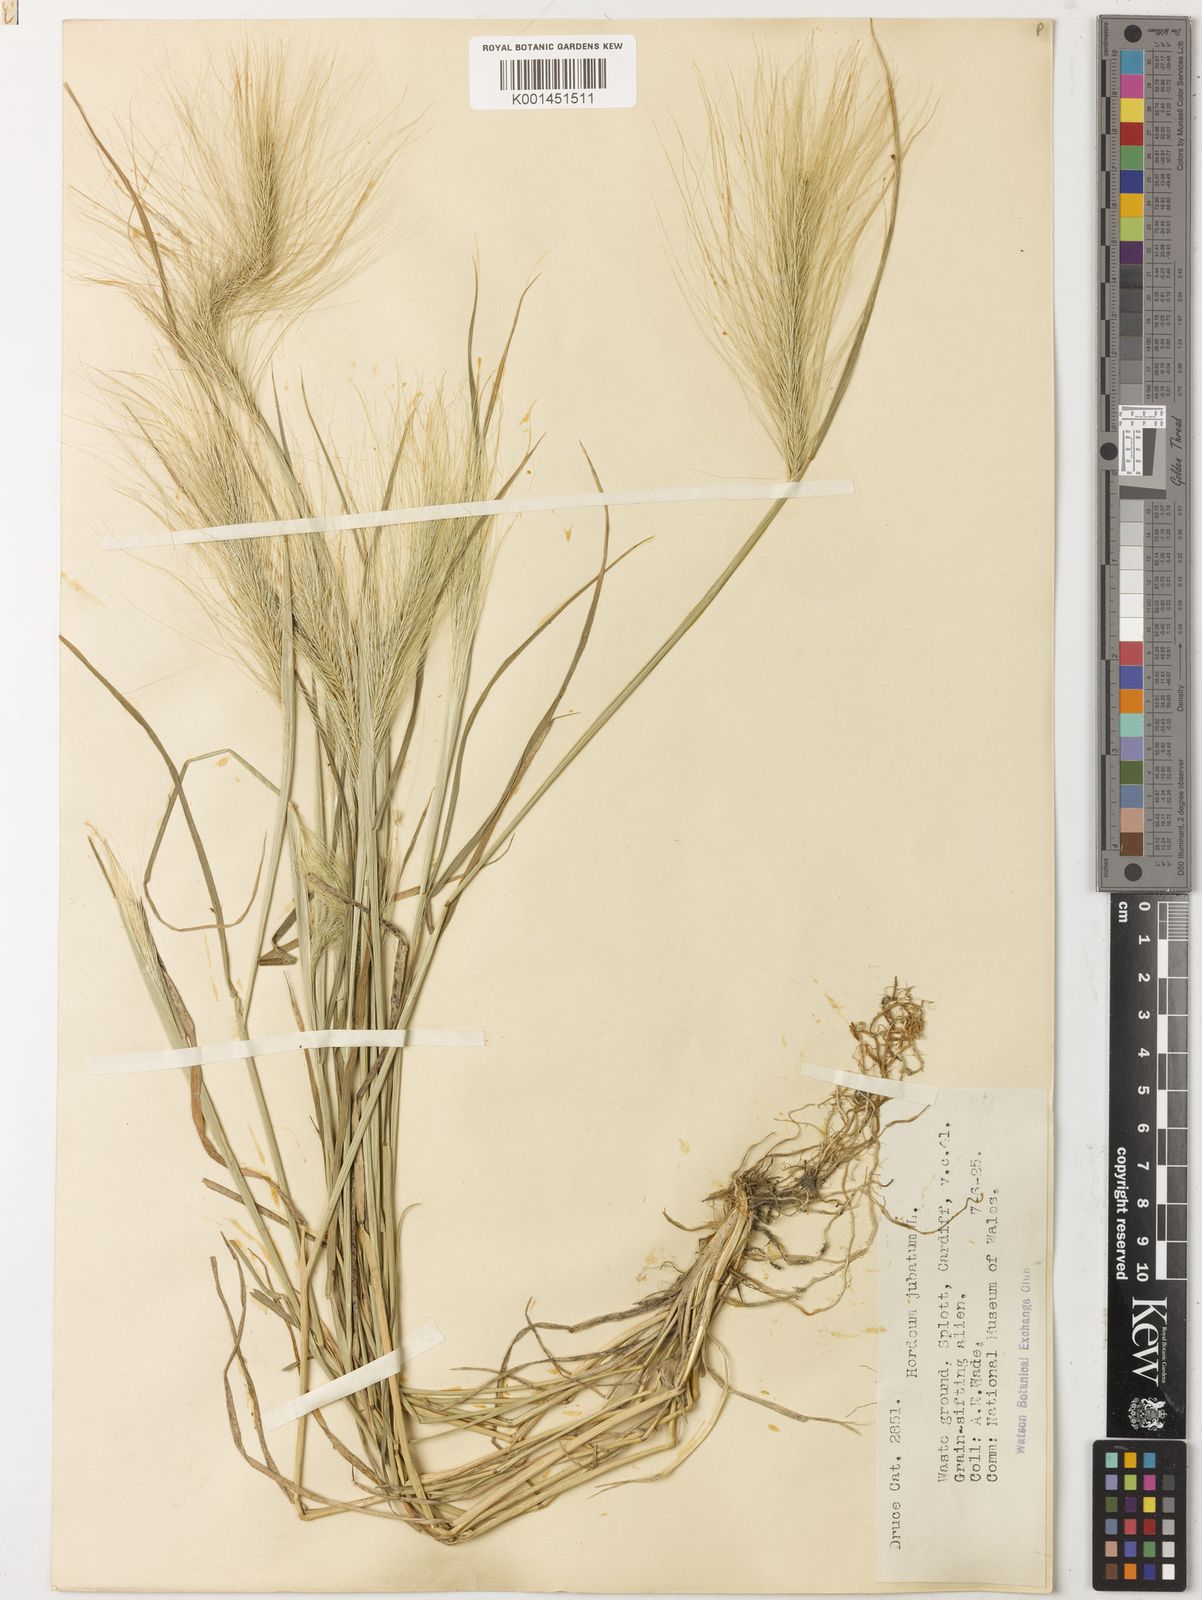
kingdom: Plantae
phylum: Tracheophyta
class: Liliopsida
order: Poales
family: Poaceae
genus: Hordeum
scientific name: Hordeum jubatum
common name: Foxtail barley
